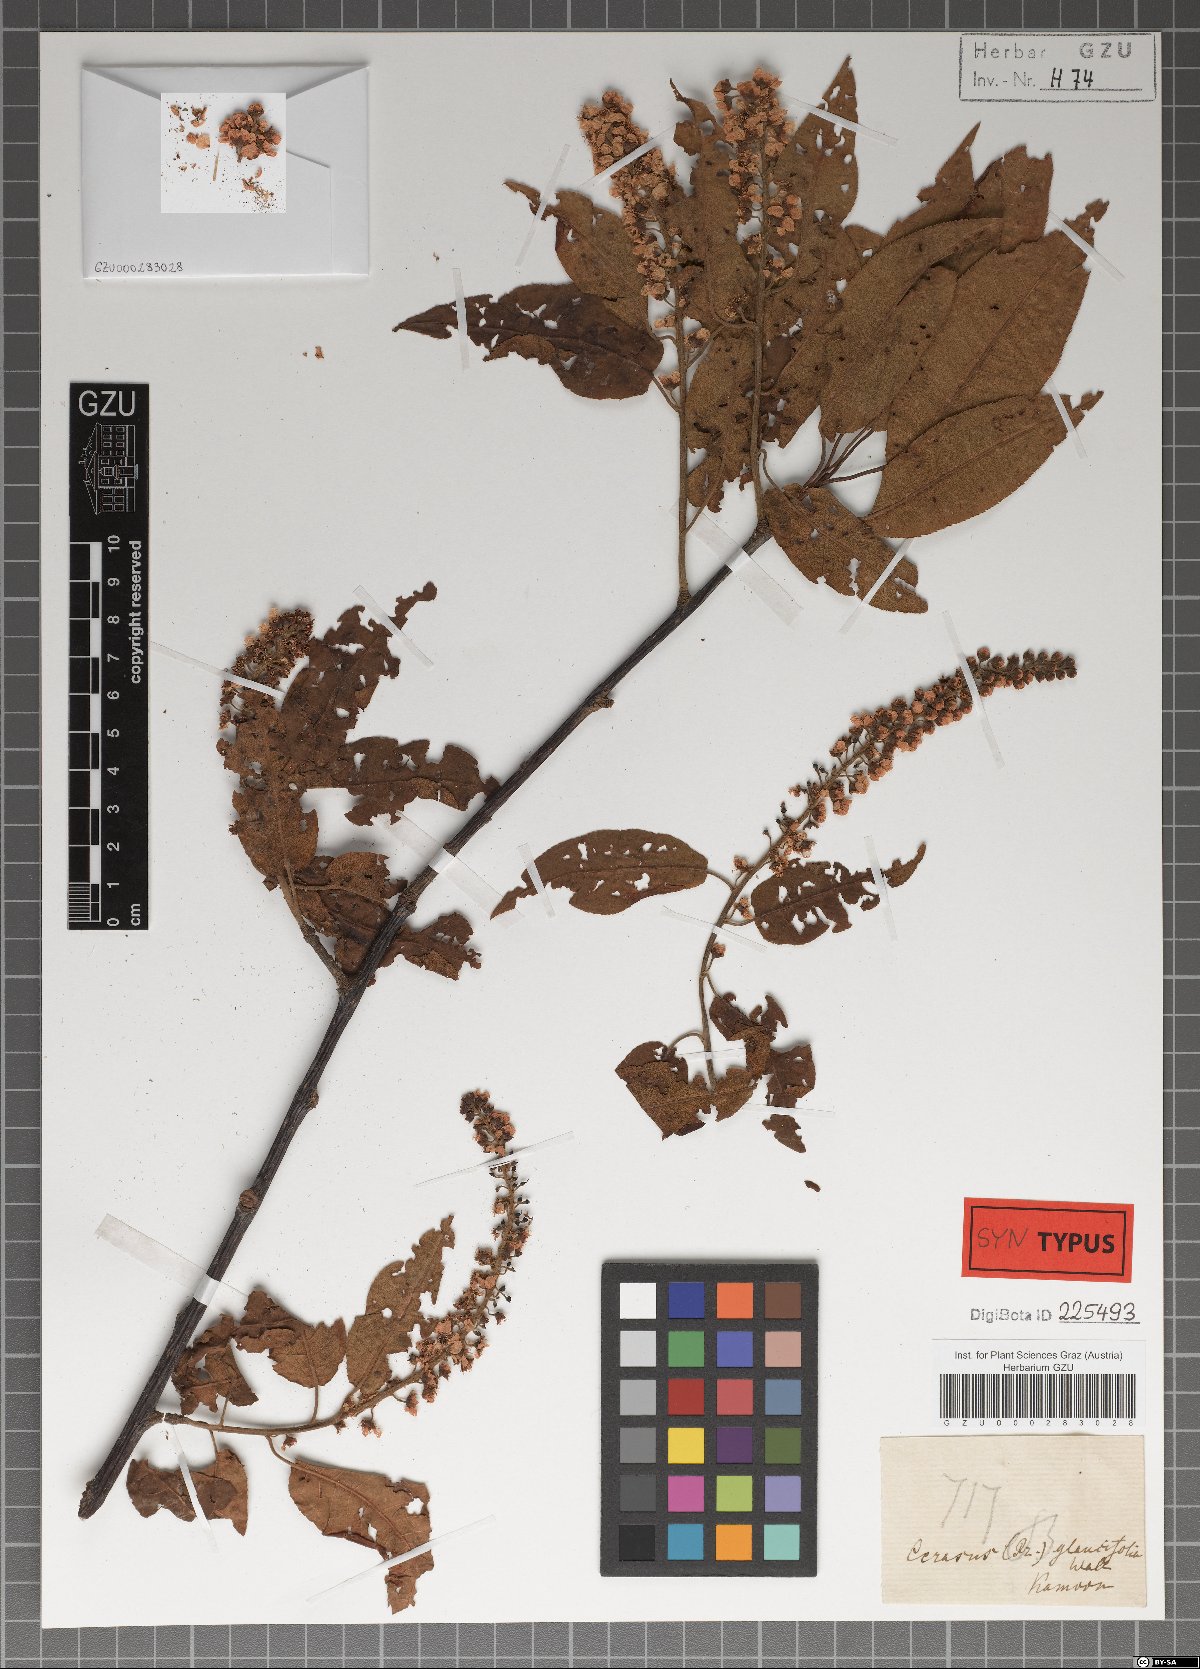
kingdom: Plantae
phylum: Tracheophyta
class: Magnoliopsida
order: Rosales
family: Rosaceae
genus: Prunus
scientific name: Prunus napaulensis
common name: Khasia cherry
